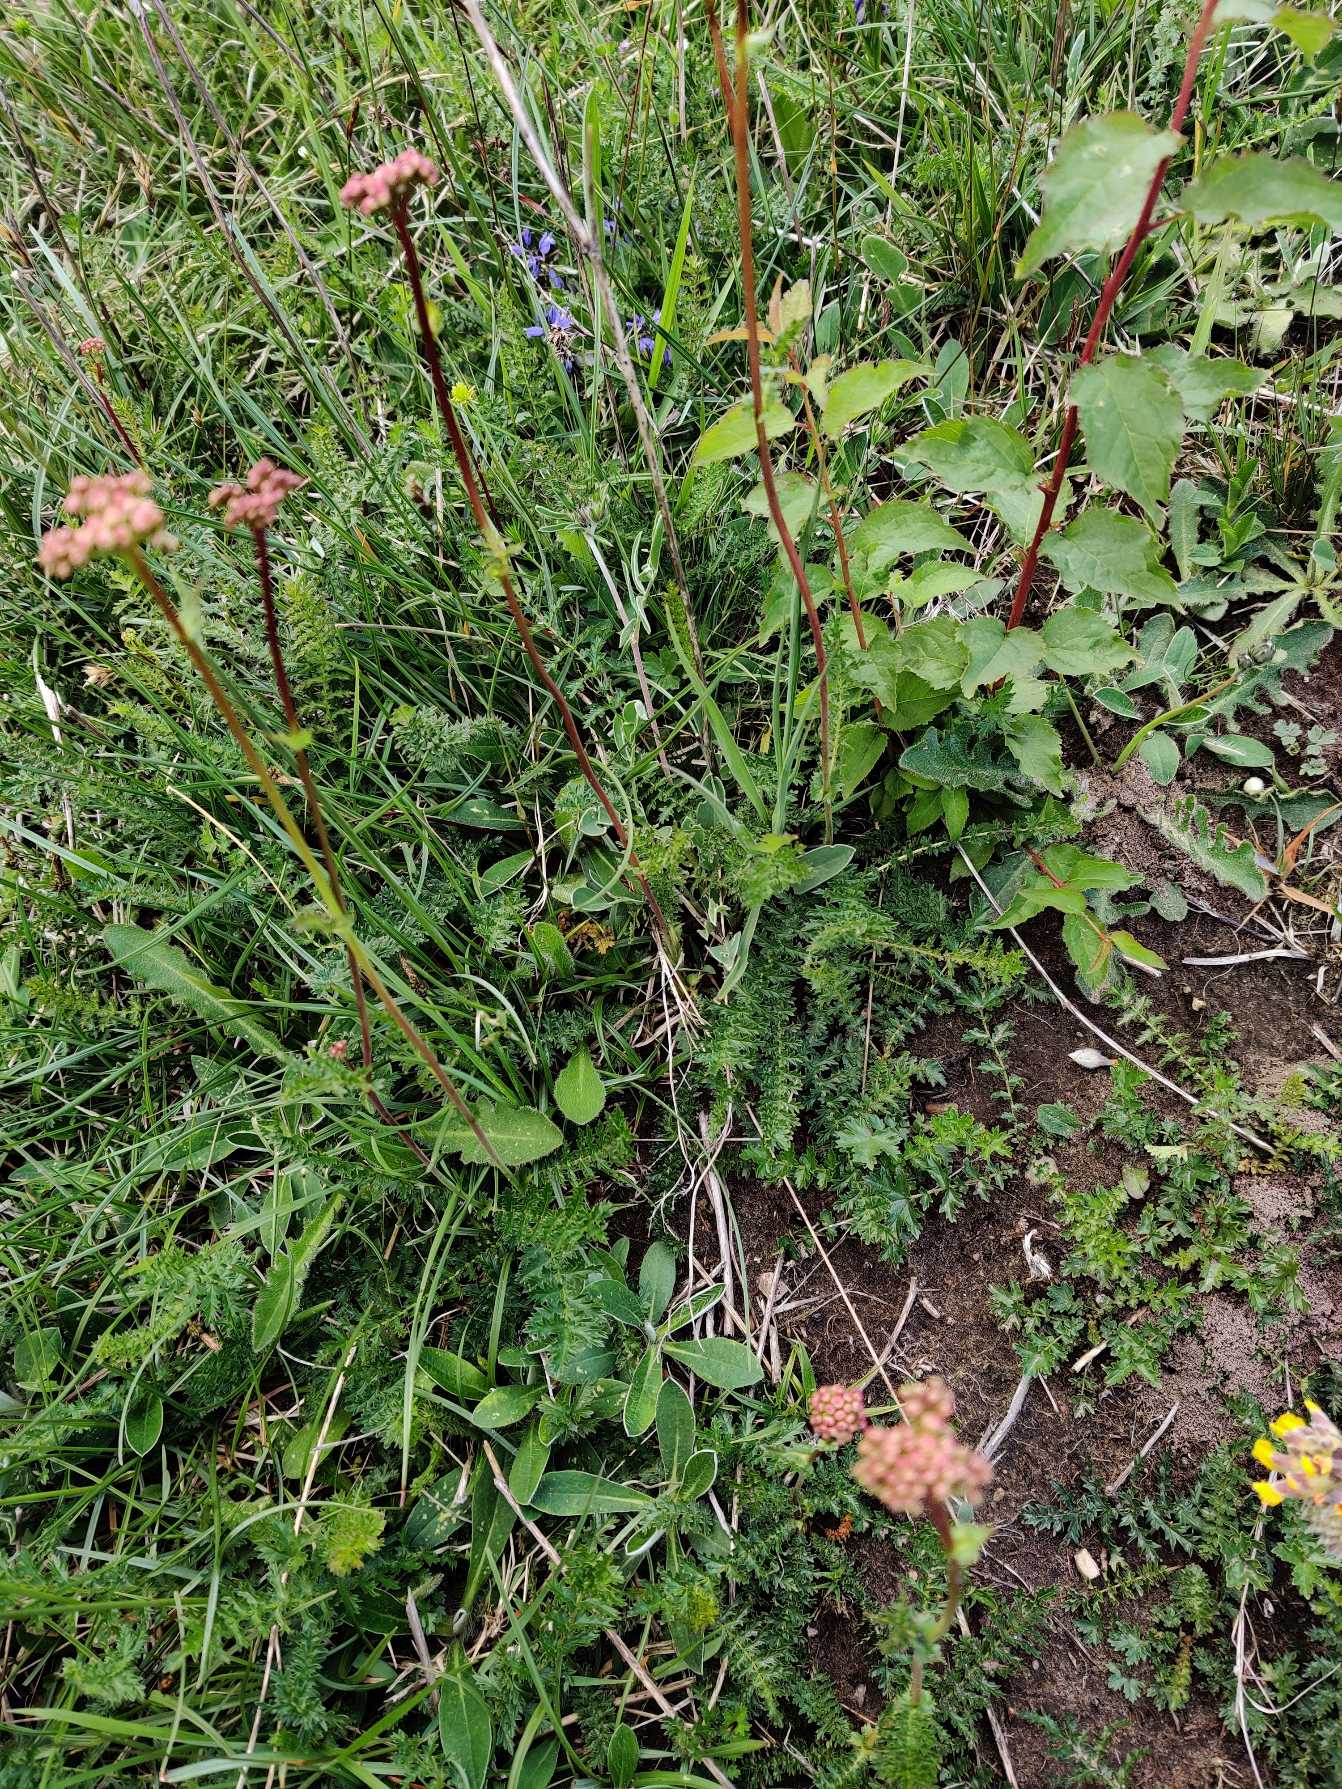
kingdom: Plantae
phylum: Tracheophyta
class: Magnoliopsida
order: Rosales
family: Rosaceae
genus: Filipendula
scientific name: Filipendula vulgaris
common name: Knoldet mjødurt
